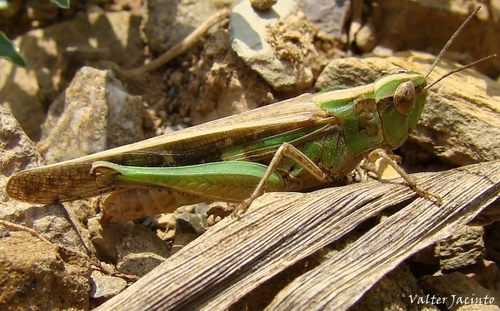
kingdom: Animalia
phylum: Arthropoda
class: Insecta
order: Orthoptera
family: Acrididae
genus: Aiolopus
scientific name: Aiolopus puissanti
